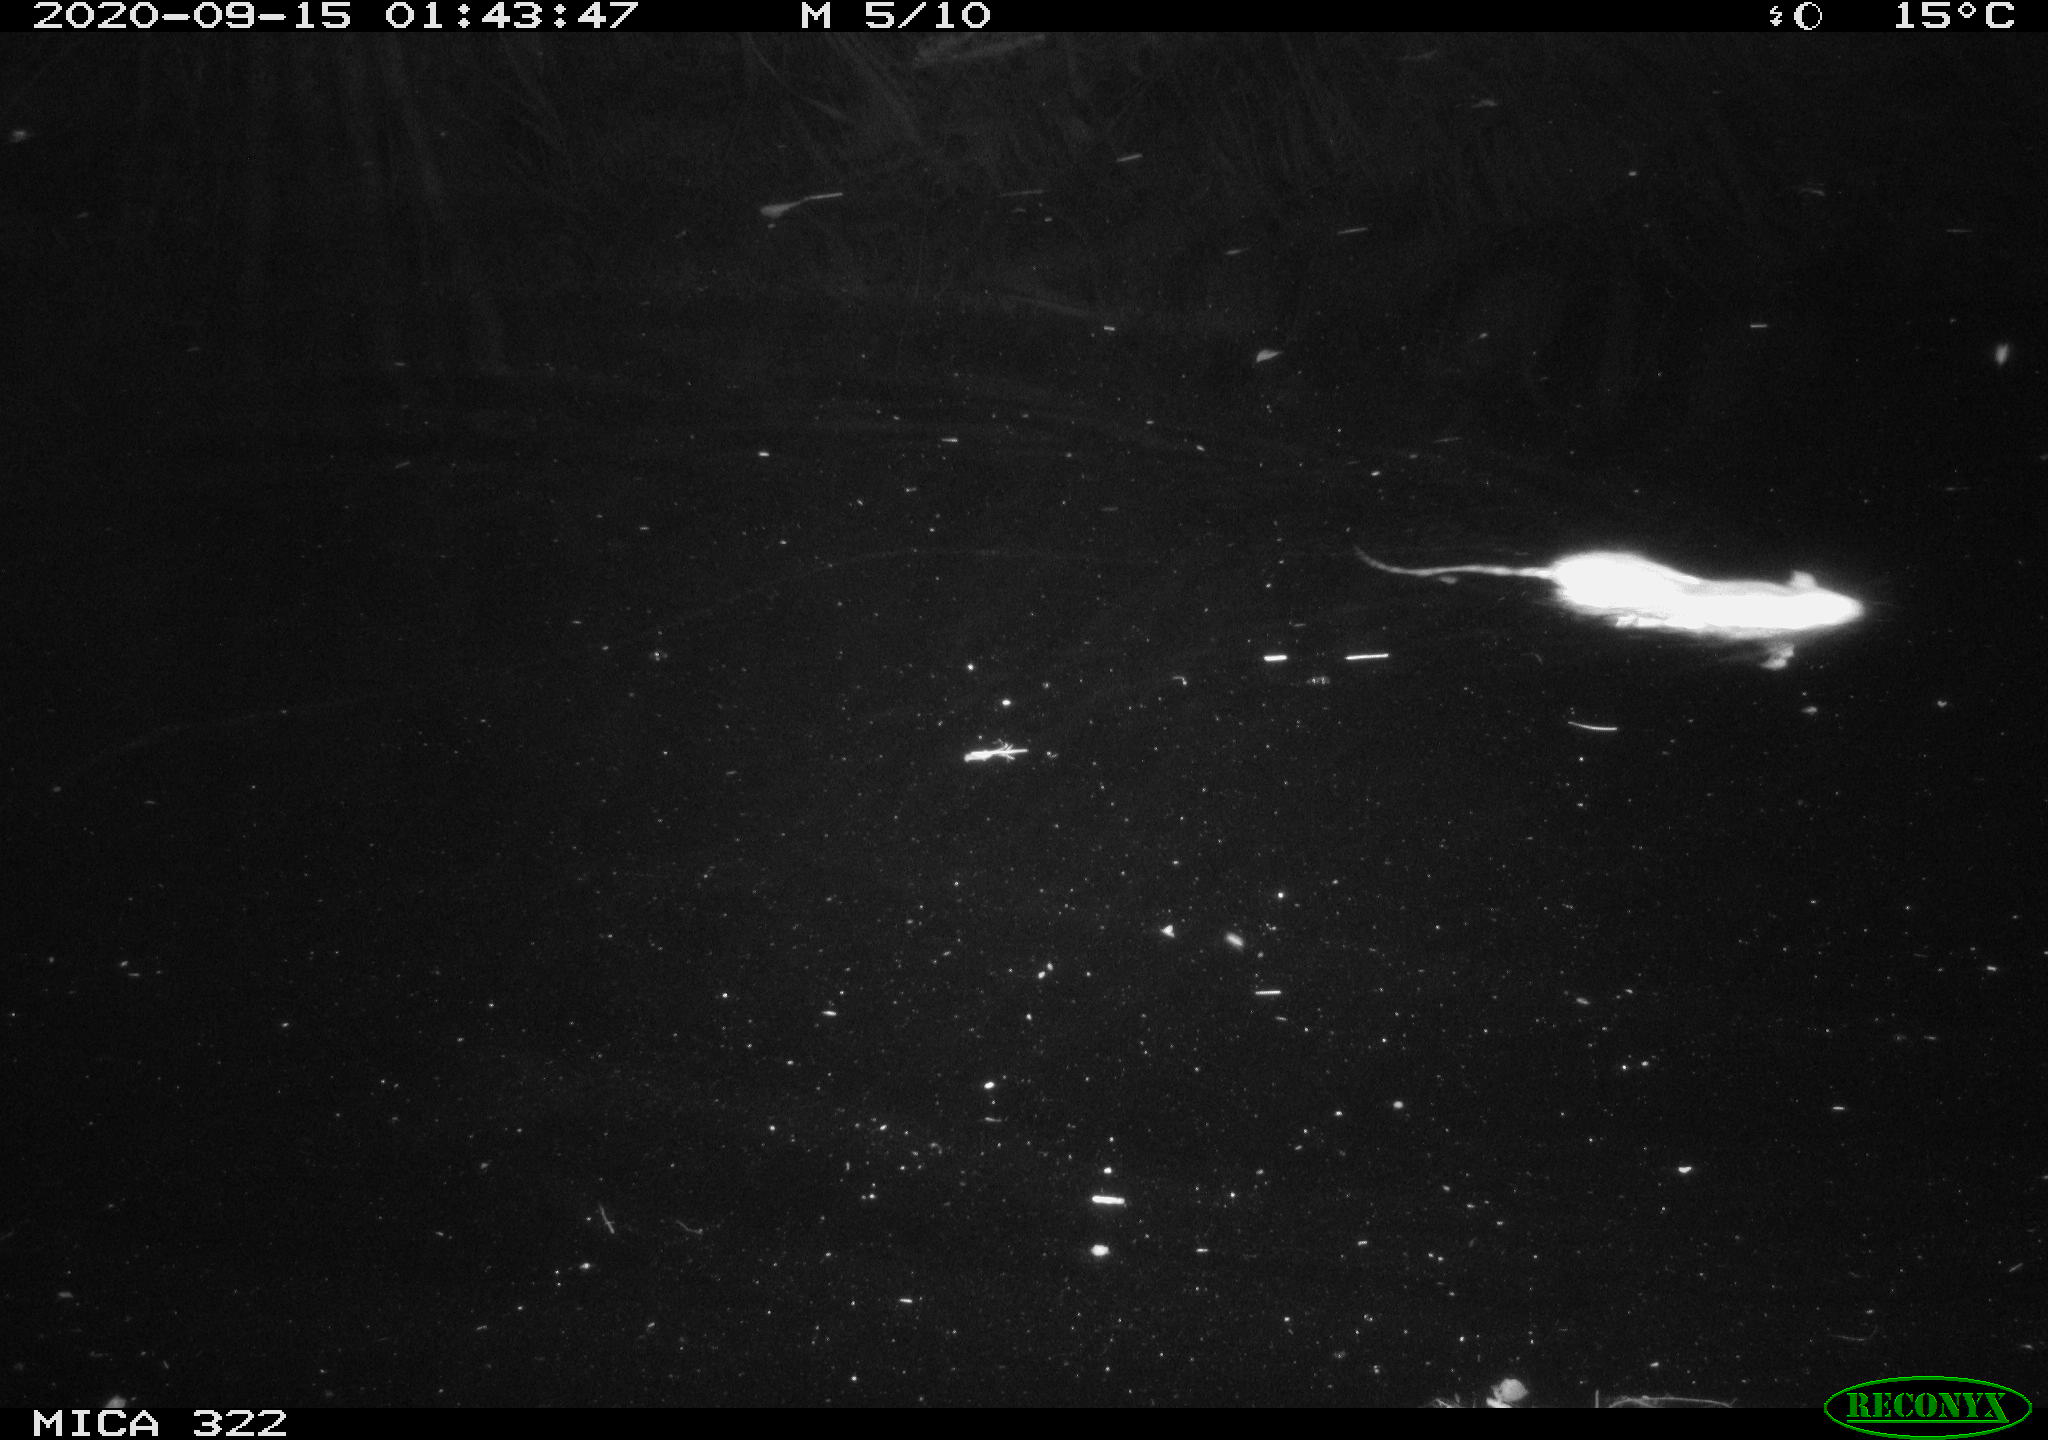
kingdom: Animalia
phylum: Chordata
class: Mammalia
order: Rodentia
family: Muridae
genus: Rattus
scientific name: Rattus norvegicus
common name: Brown rat
